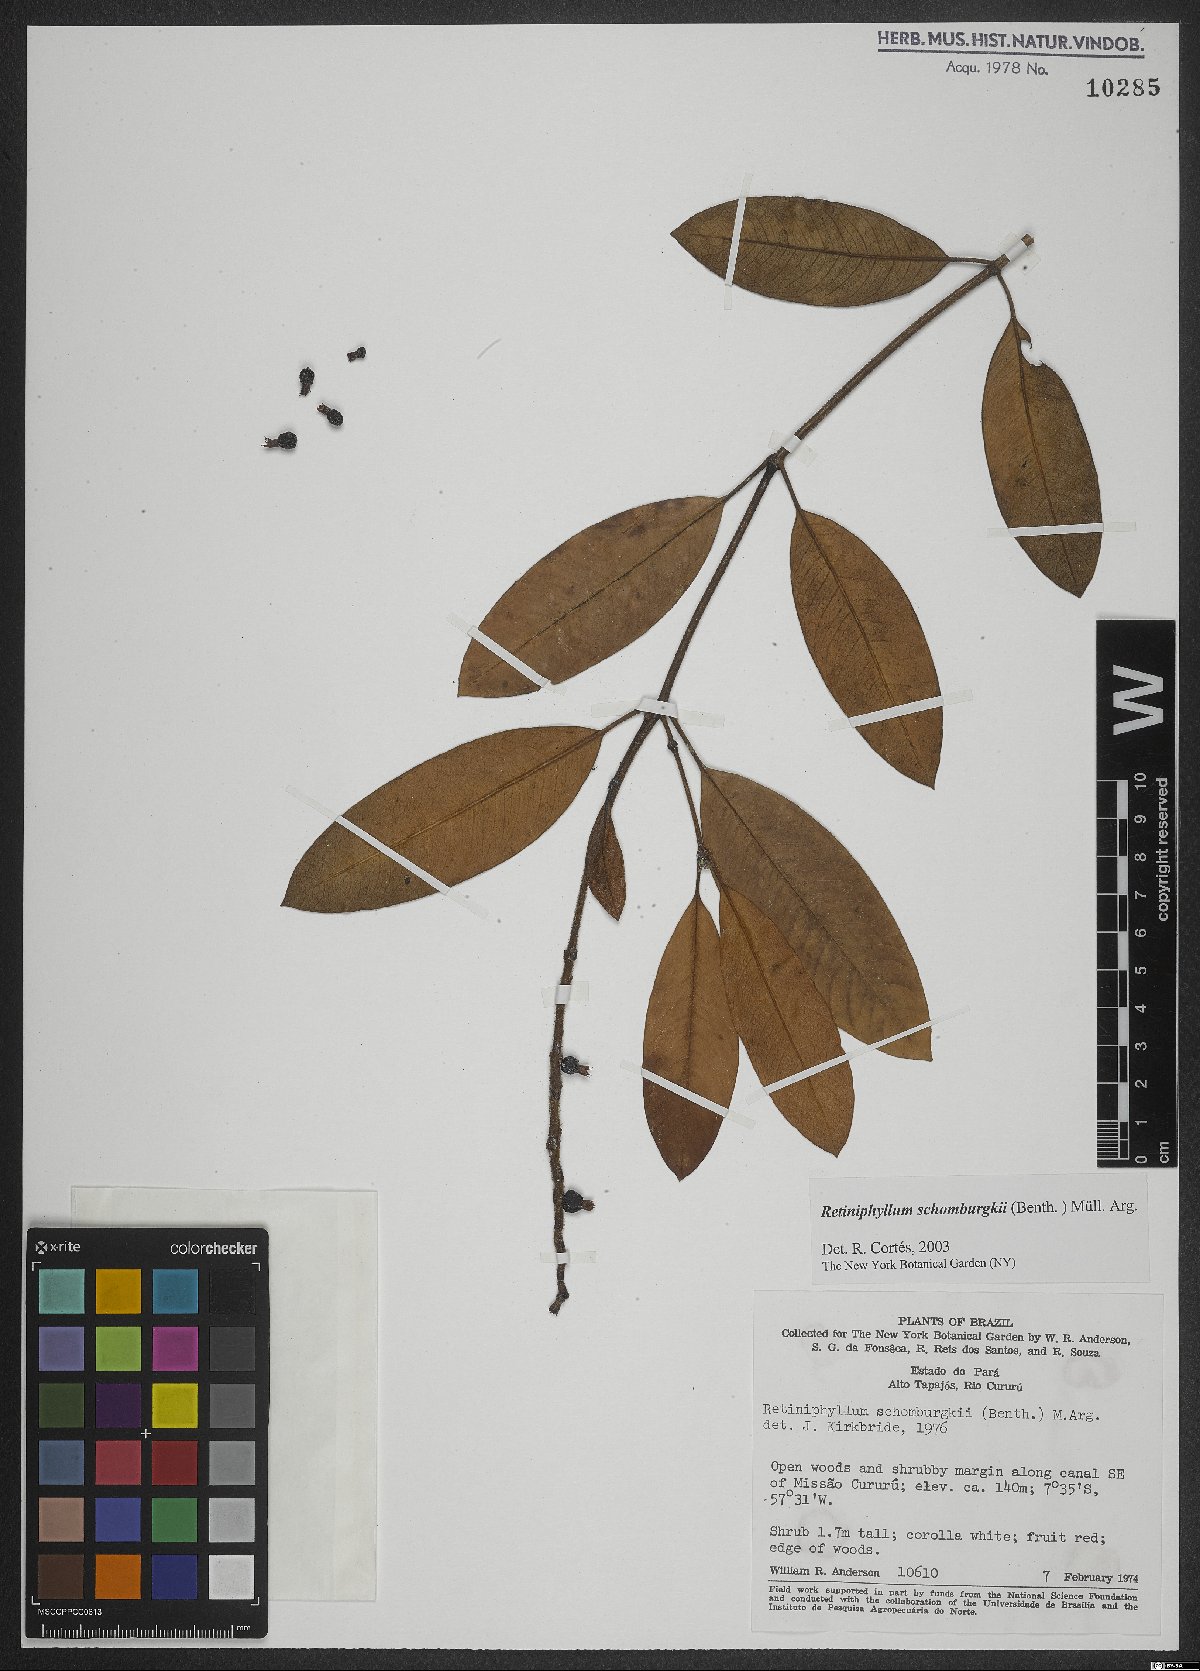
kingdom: Plantae
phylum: Tracheophyta
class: Magnoliopsida
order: Gentianales
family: Rubiaceae
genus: Retiniphyllum
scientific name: Retiniphyllum schomburgkii
